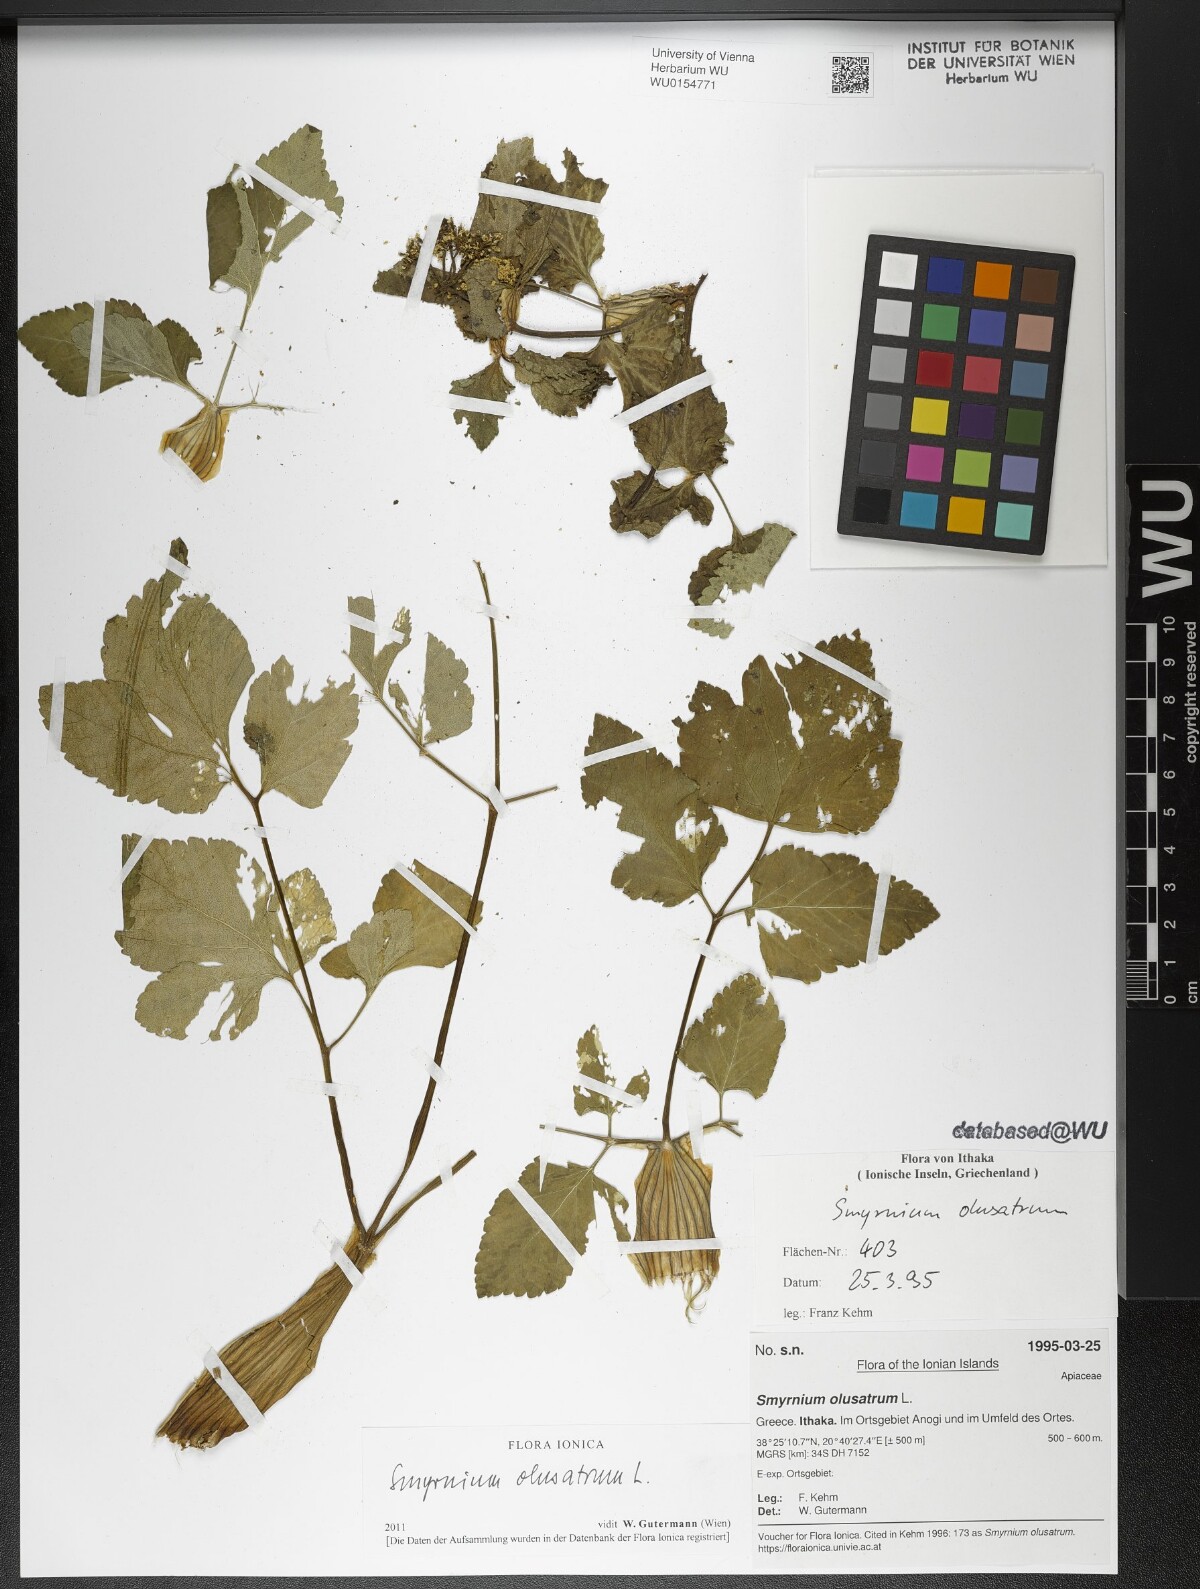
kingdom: Plantae
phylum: Tracheophyta
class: Magnoliopsida
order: Apiales
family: Apiaceae
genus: Smyrnium
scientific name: Smyrnium olusatrum
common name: Alexanders
